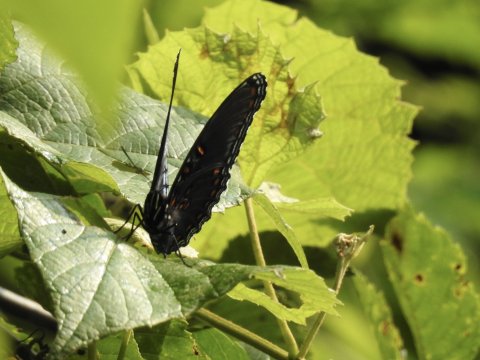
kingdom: Animalia
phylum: Arthropoda
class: Insecta
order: Lepidoptera
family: Nymphalidae
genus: Limenitis
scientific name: Limenitis arthemis
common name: Red-spotted Admiral
